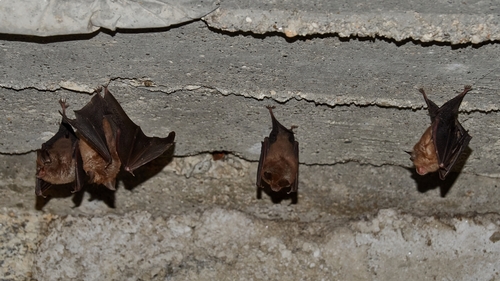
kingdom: Animalia
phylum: Chordata
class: Mammalia
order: Chiroptera
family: Rhinolophidae
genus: Rhinolophus
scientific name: Rhinolophus
